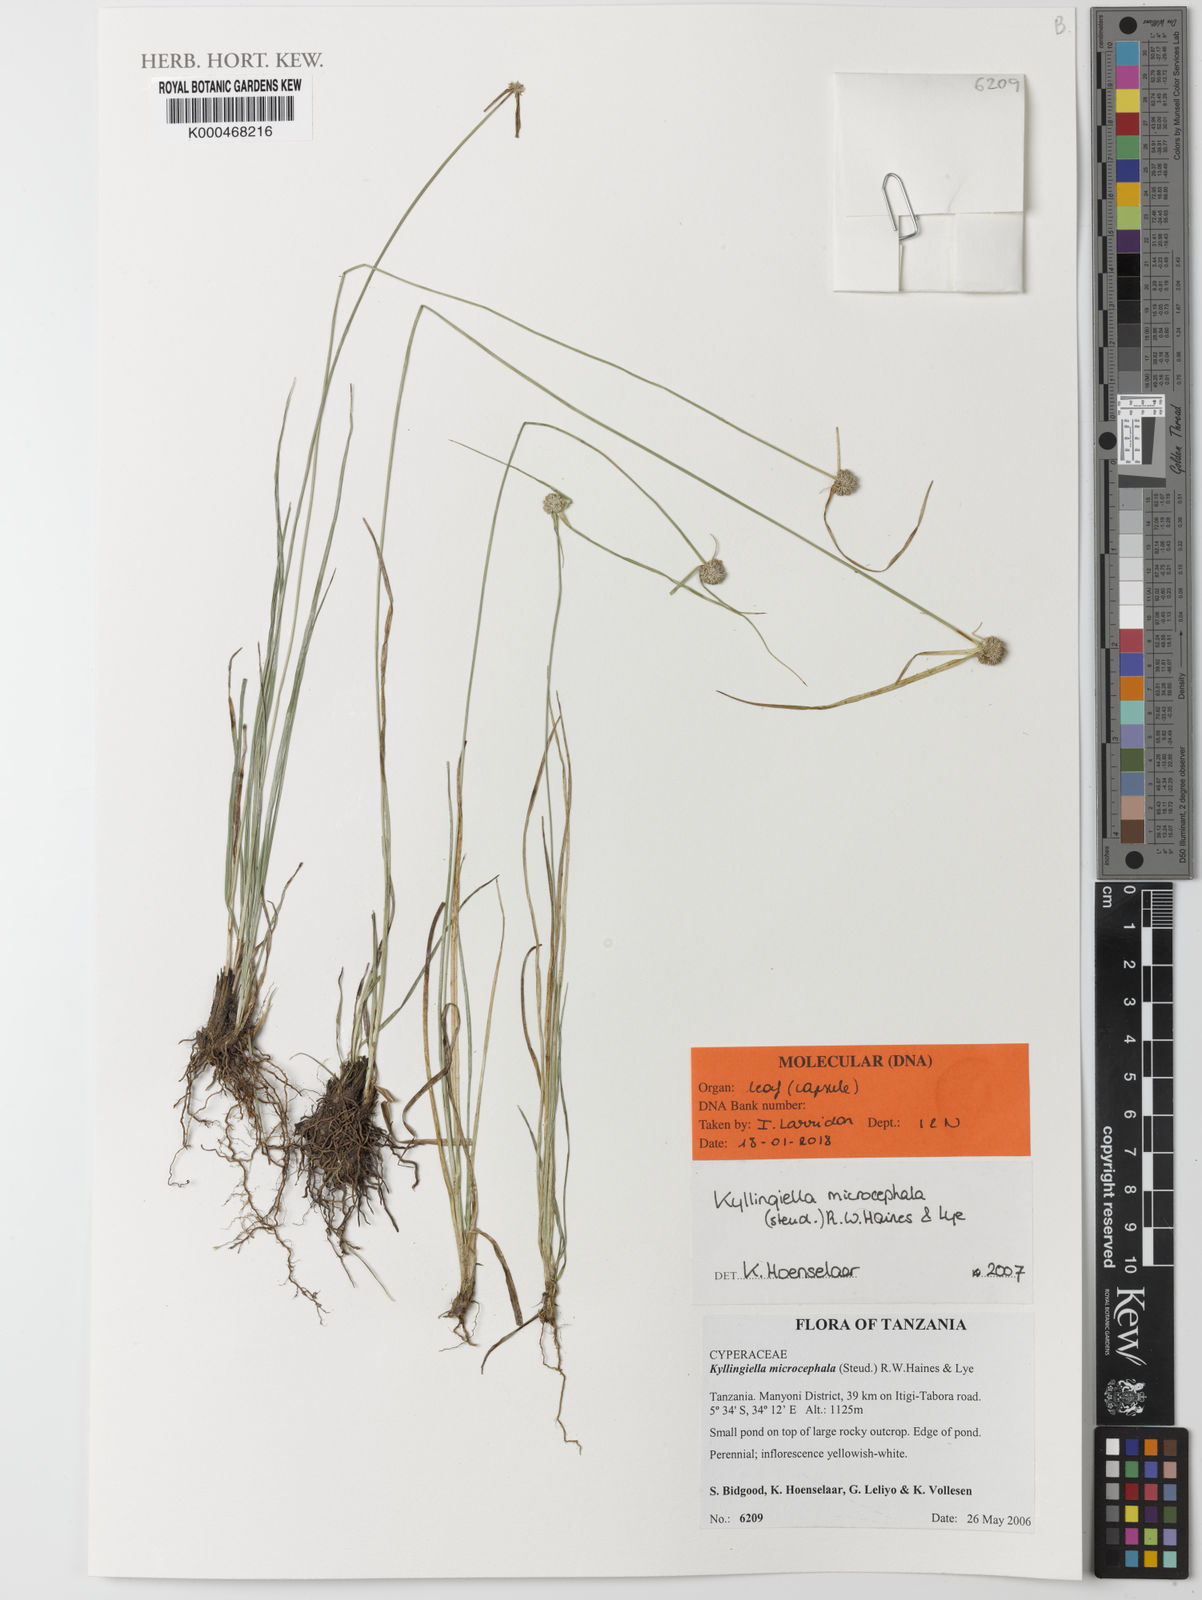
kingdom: Plantae
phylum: Tracheophyta
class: Liliopsida
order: Poales
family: Cyperaceae
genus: Cyperus
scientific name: Cyperus kyllingiella
